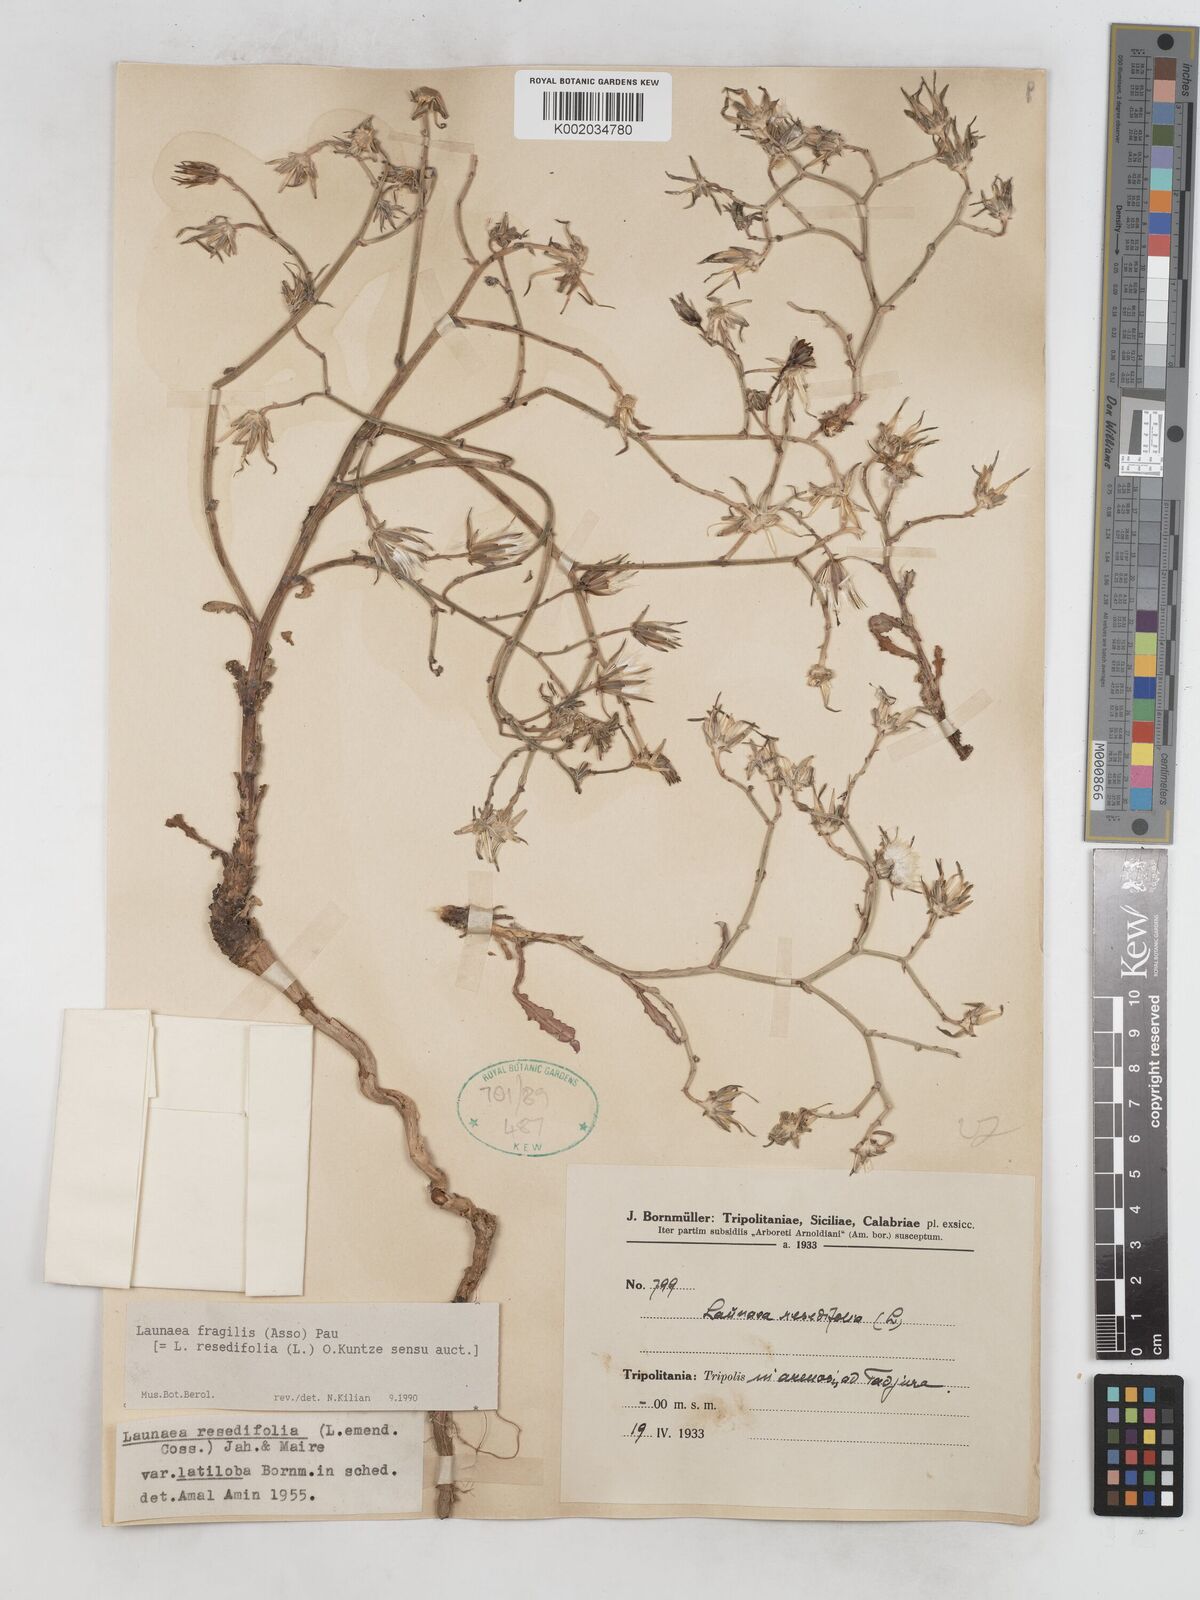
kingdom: Plantae
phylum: Tracheophyta
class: Magnoliopsida
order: Asterales
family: Asteraceae
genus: Launaea
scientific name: Launaea fragilis
